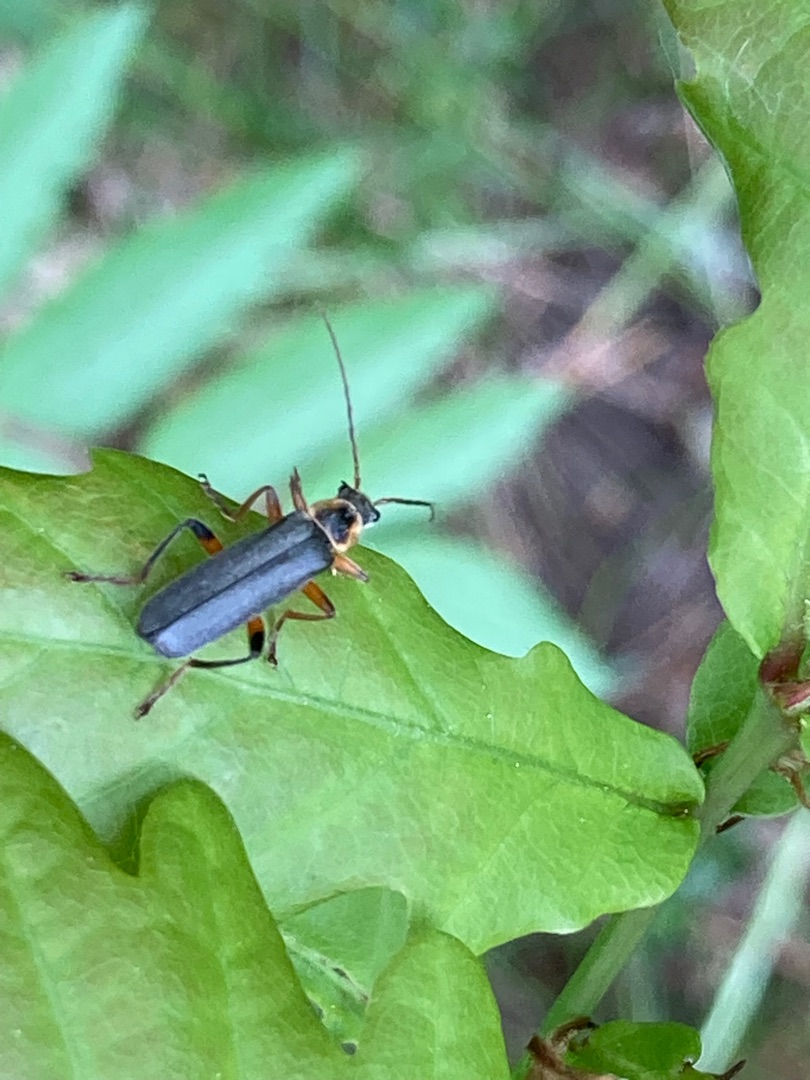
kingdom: Animalia
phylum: Arthropoda
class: Insecta
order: Coleoptera
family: Cantharidae
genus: Cantharis
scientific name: Cantharis nigricans
